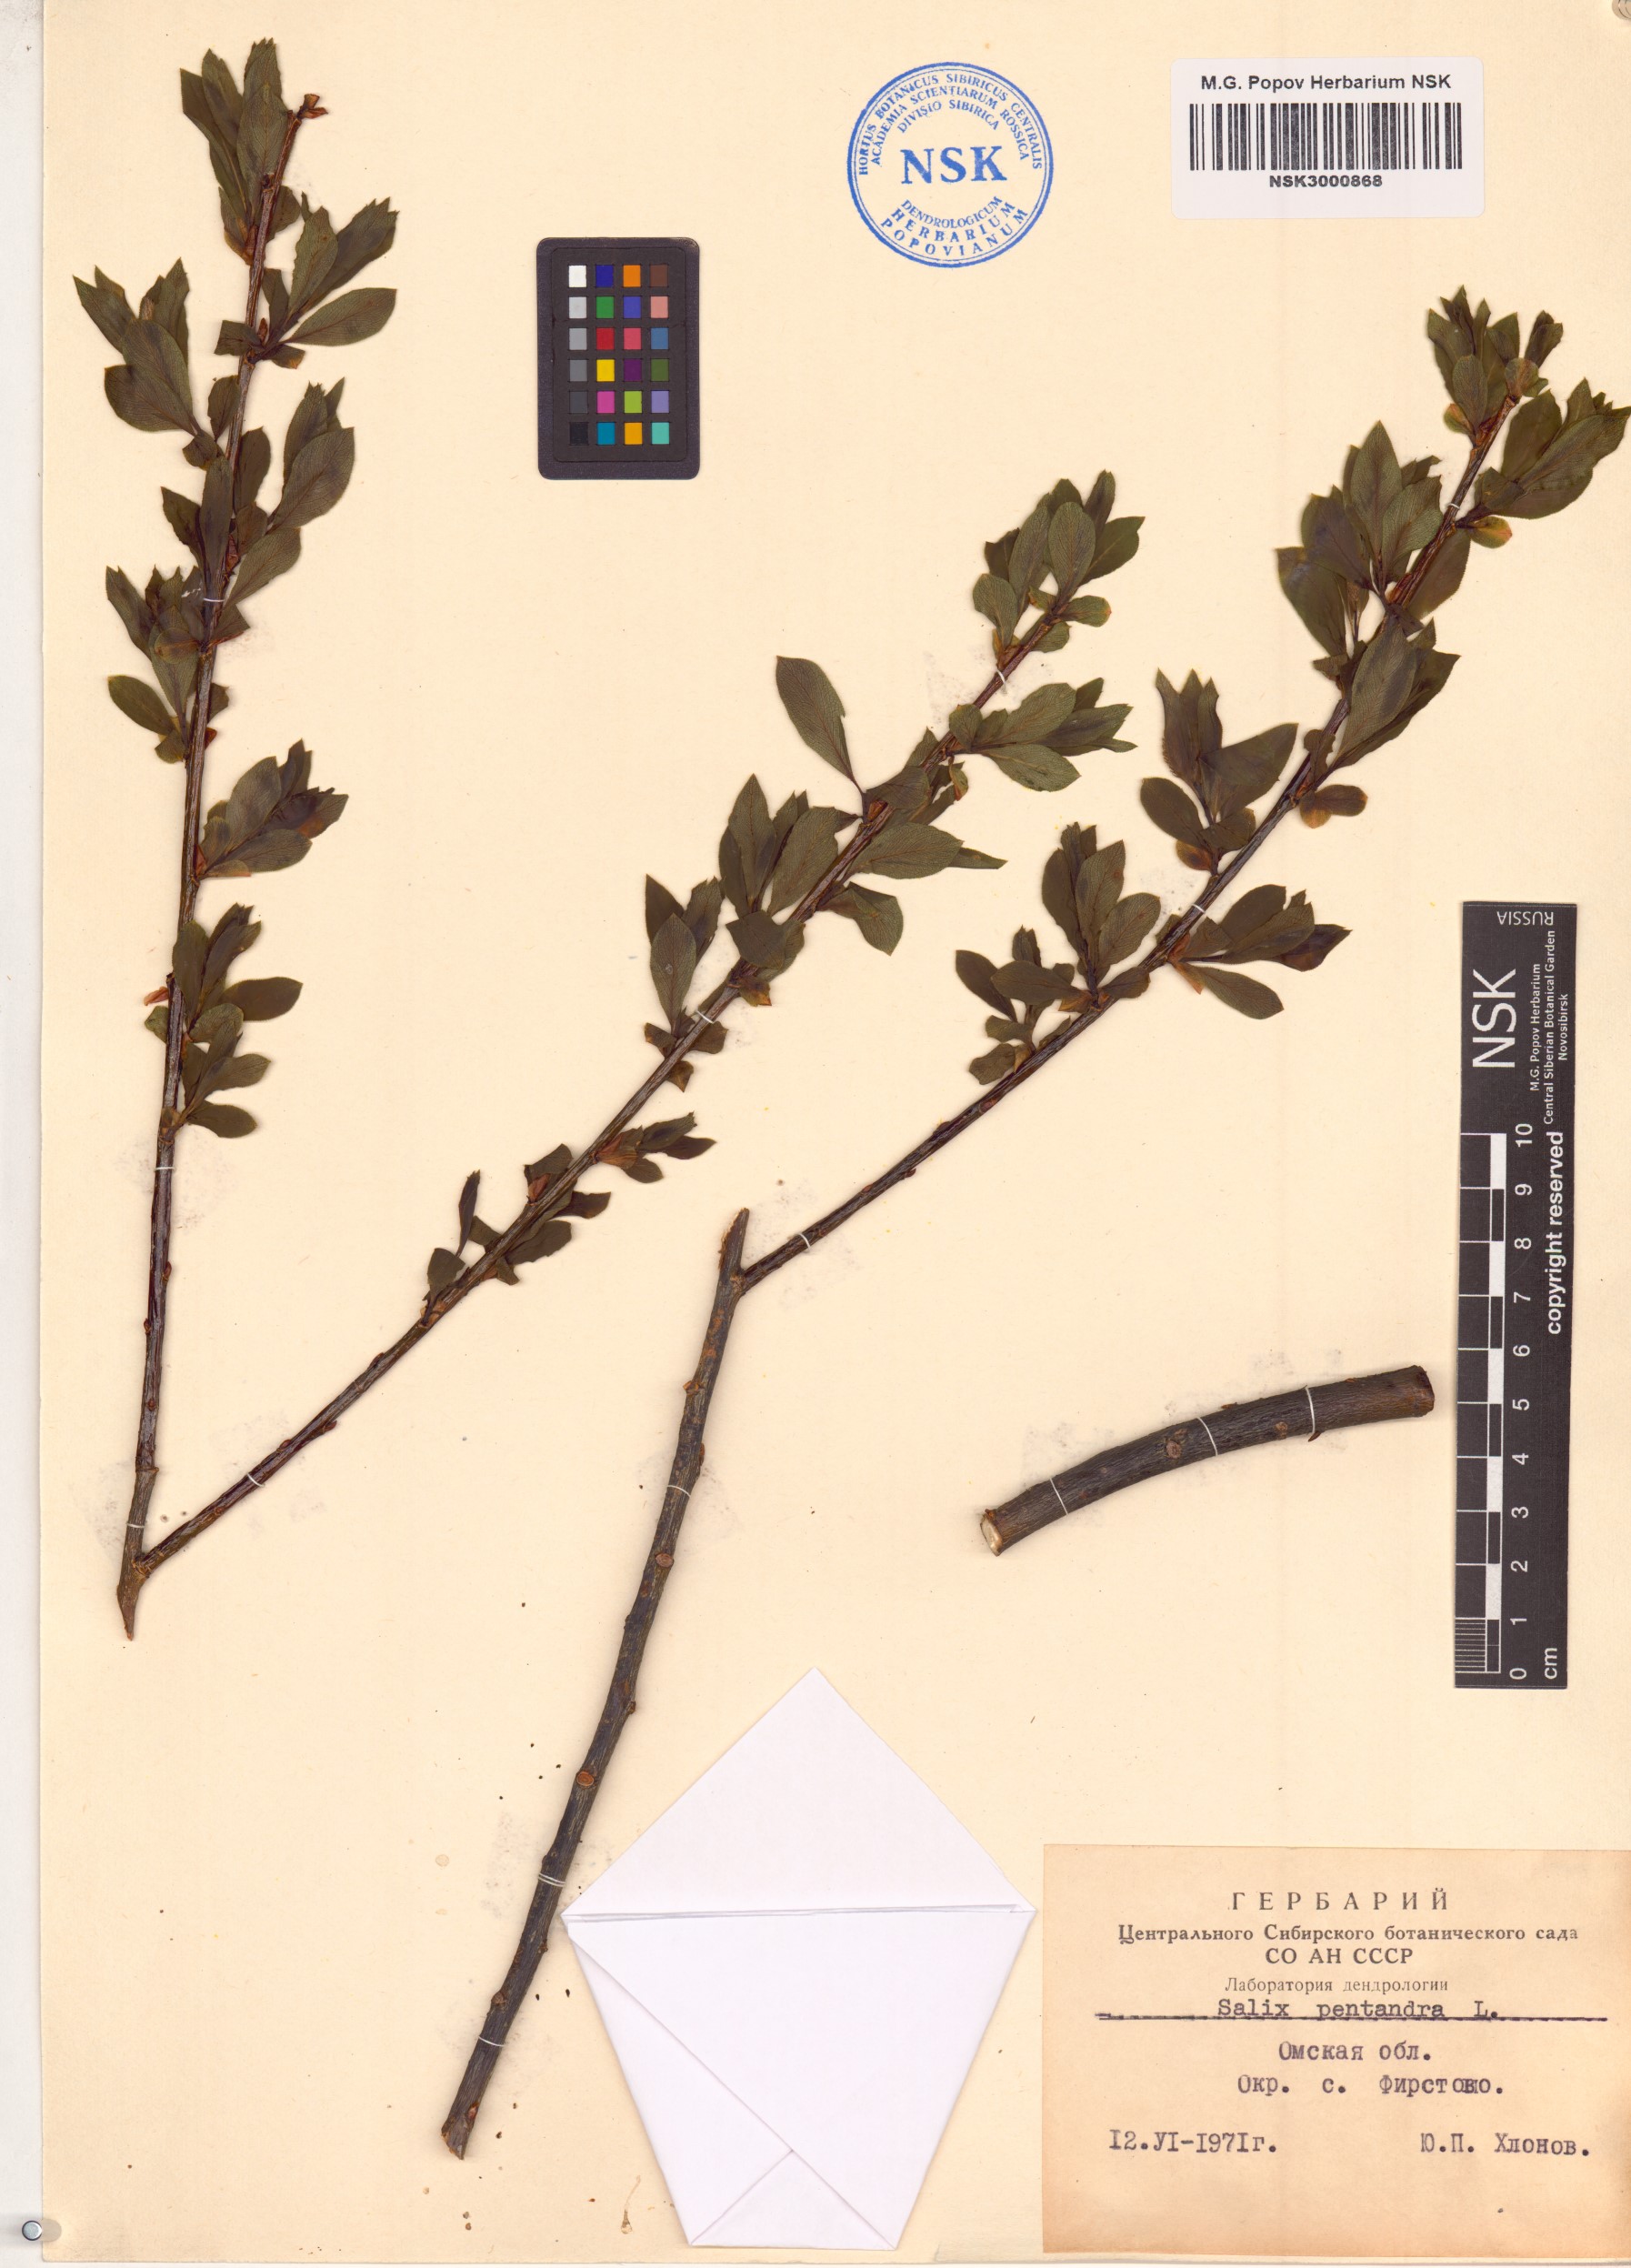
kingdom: Plantae
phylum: Tracheophyta
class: Magnoliopsida
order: Malpighiales
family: Salicaceae
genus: Salix
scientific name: Salix pentandra
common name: Bay willow
